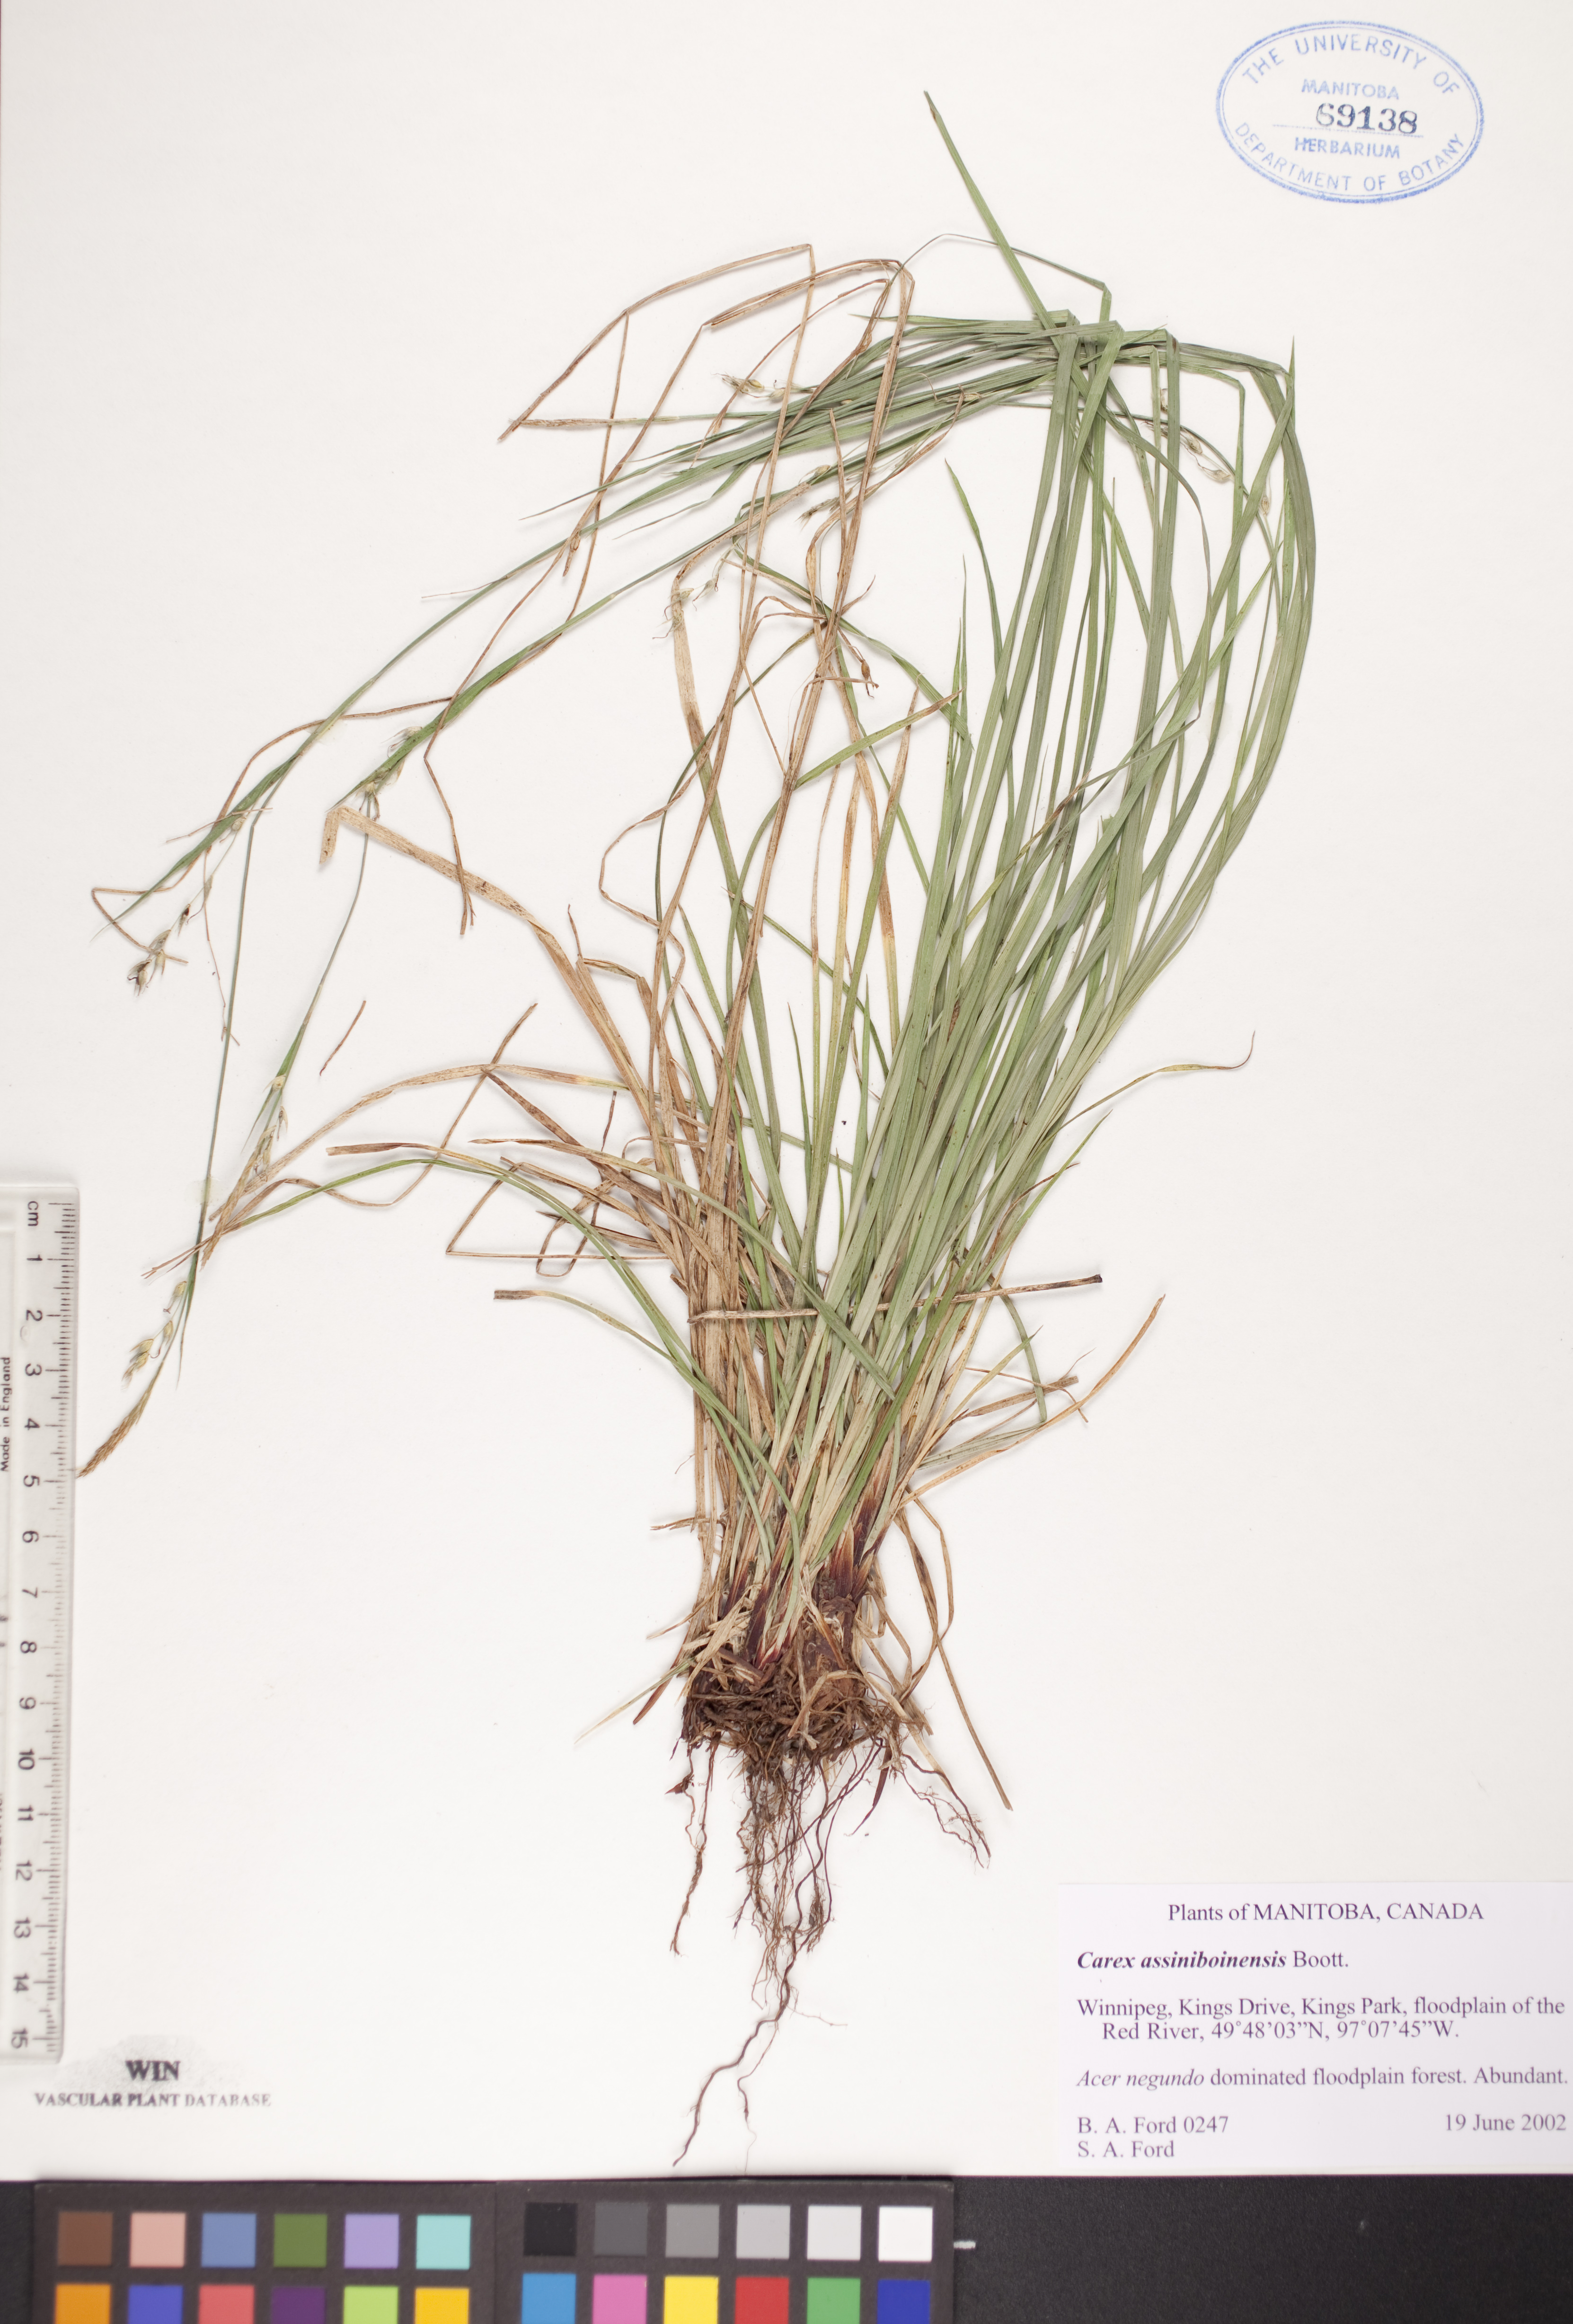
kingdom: Plantae
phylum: Tracheophyta
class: Liliopsida
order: Poales
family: Cyperaceae
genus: Carex
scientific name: Carex assiniboinensis
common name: Assiniboia sedge
